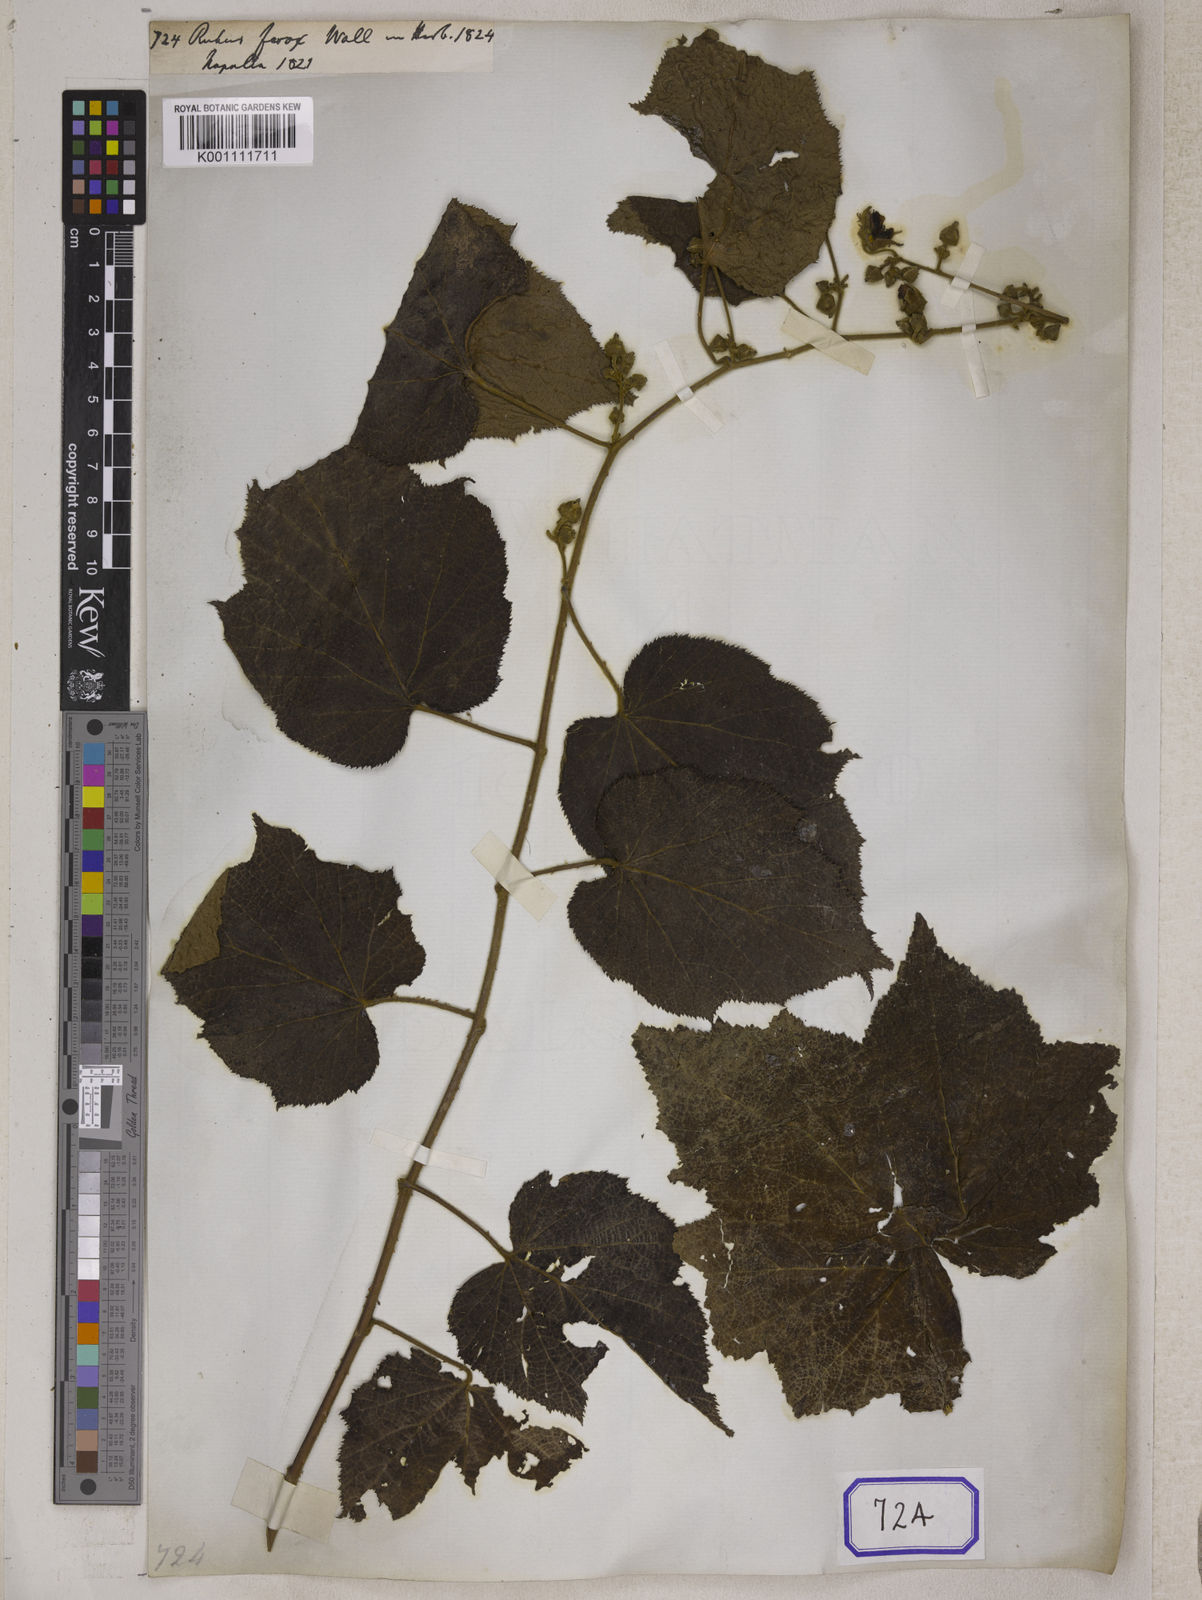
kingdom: Plantae
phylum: Tracheophyta
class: Magnoliopsida
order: Rosales
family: Rosaceae
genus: Rubus
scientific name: Rubus
